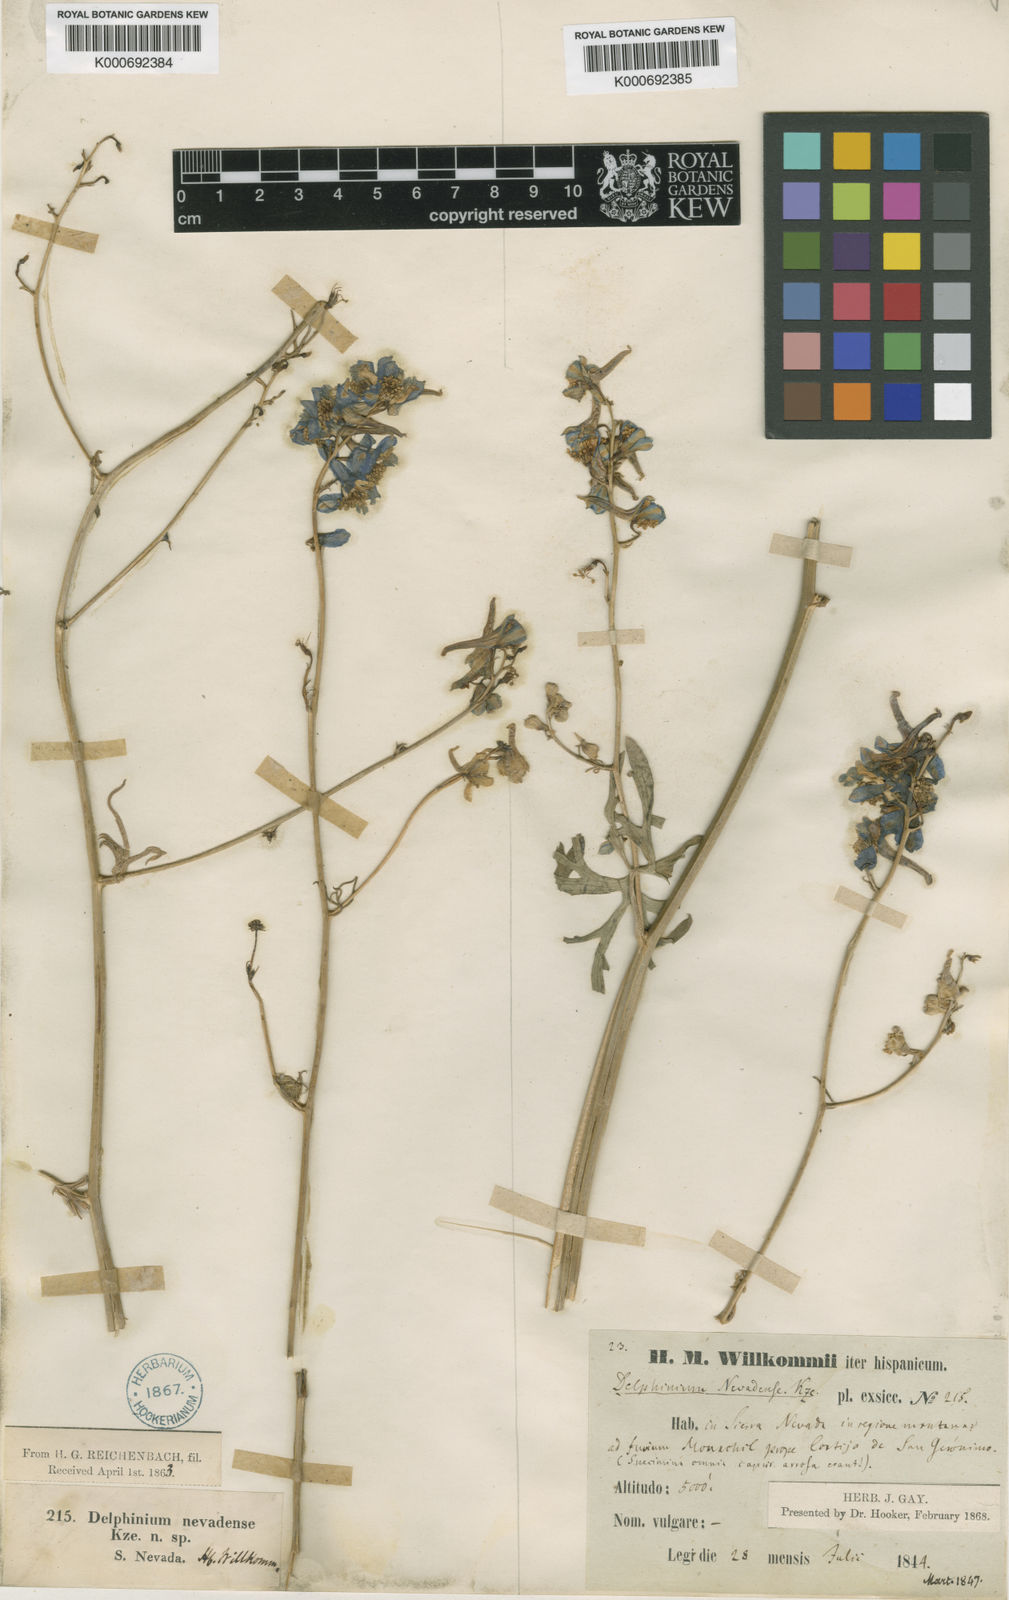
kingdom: Plantae
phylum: Tracheophyta
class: Magnoliopsida
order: Ranunculales
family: Ranunculaceae
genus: Delphinium
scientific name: Delphinium emarginatum
